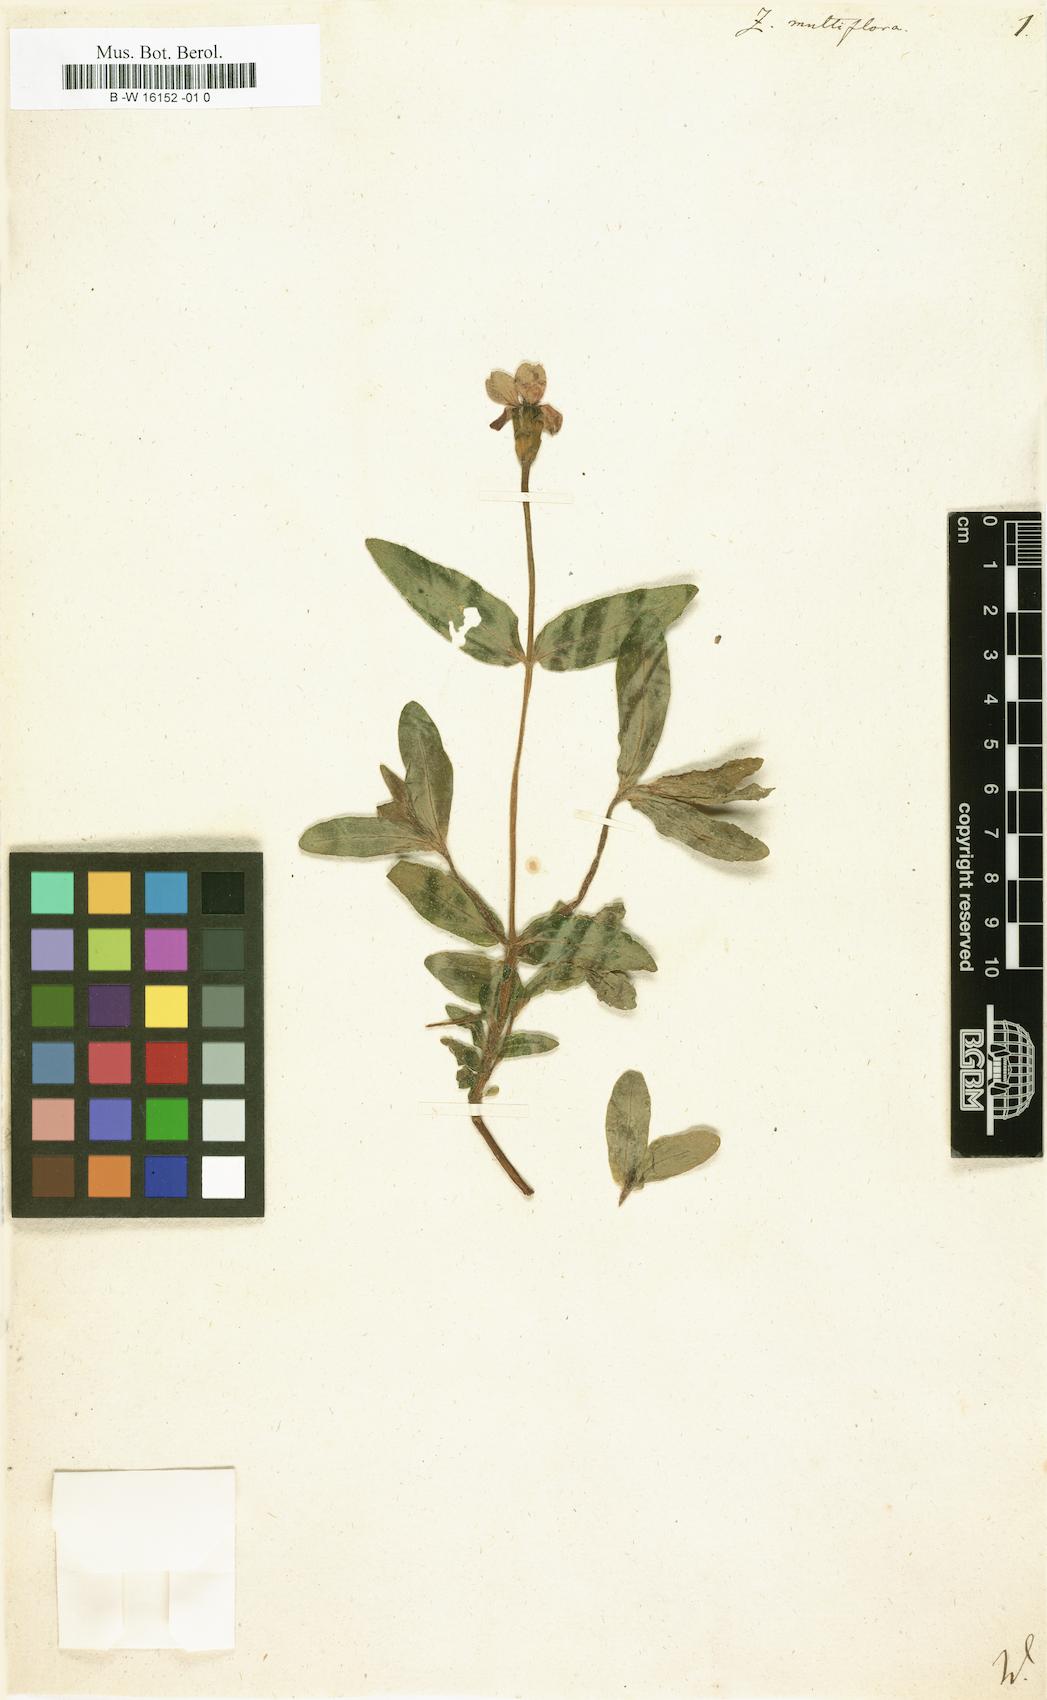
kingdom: Plantae
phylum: Tracheophyta
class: Magnoliopsida
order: Asterales
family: Asteraceae
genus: Zinnia
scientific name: Zinnia peruviana
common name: Peruvian zinnia
